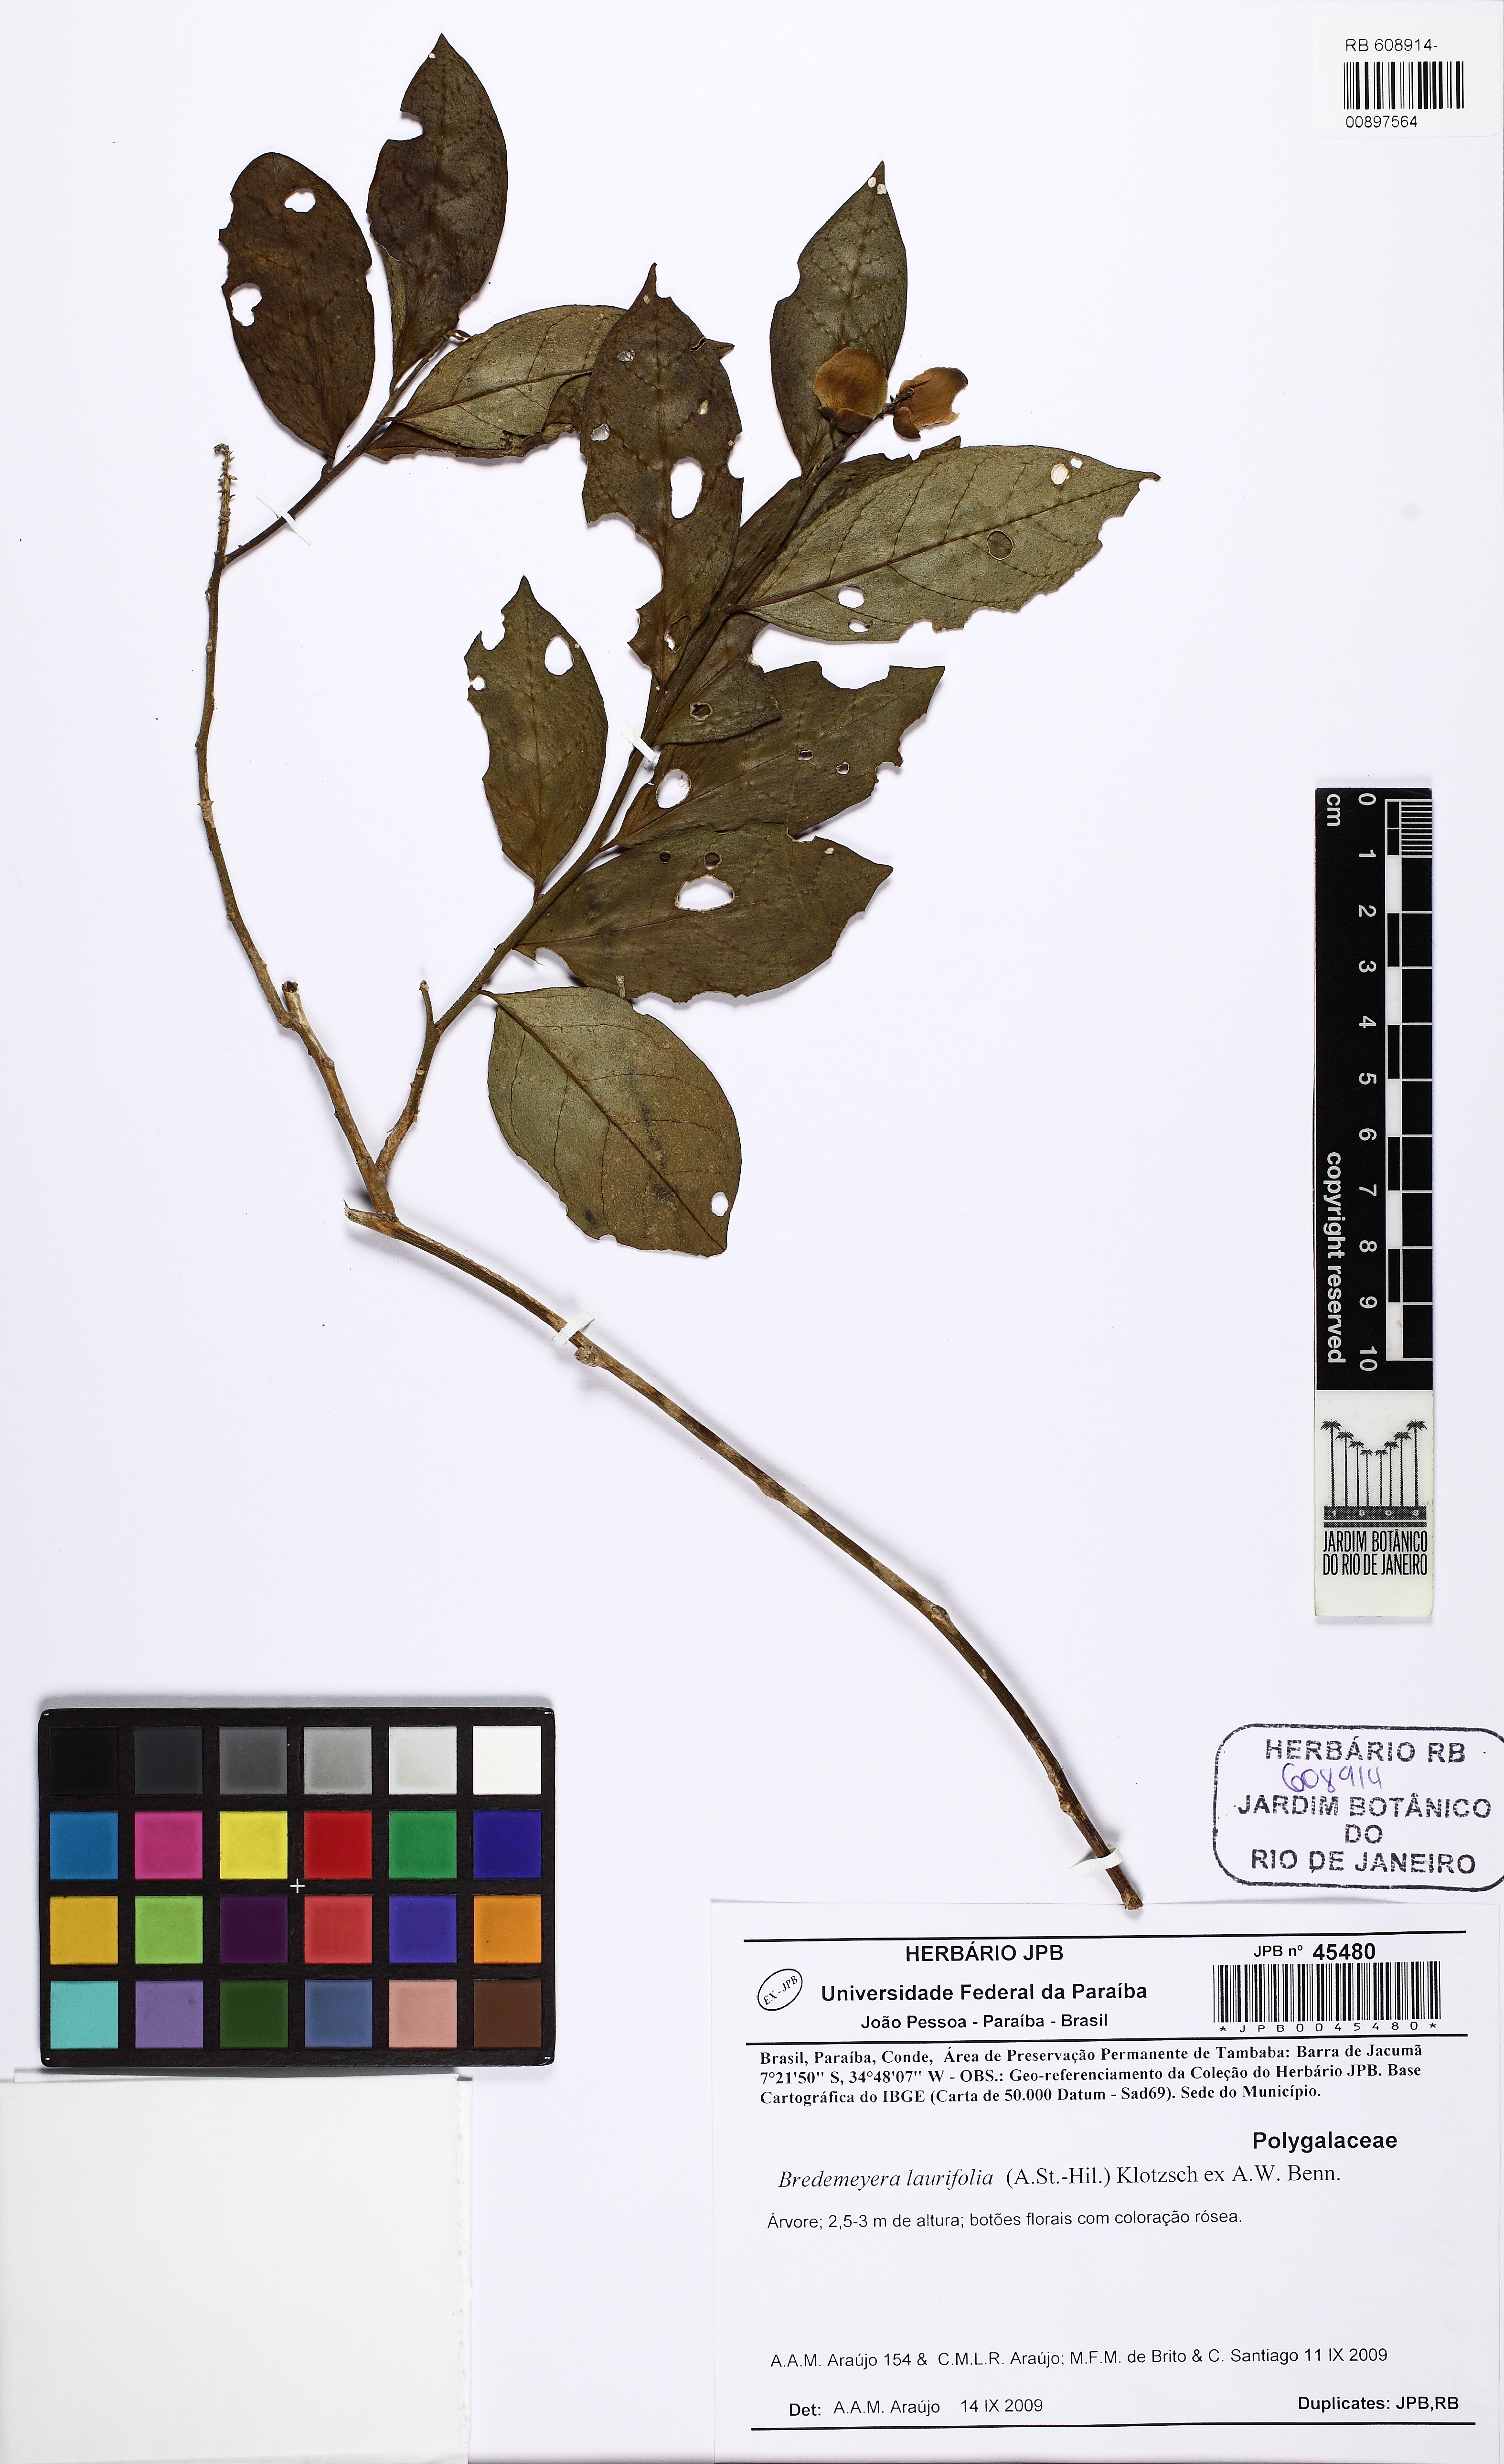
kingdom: Plantae
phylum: Tracheophyta
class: Magnoliopsida
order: Fabales
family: Polygalaceae
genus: Bredemeyera
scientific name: Bredemeyera laurifolia
